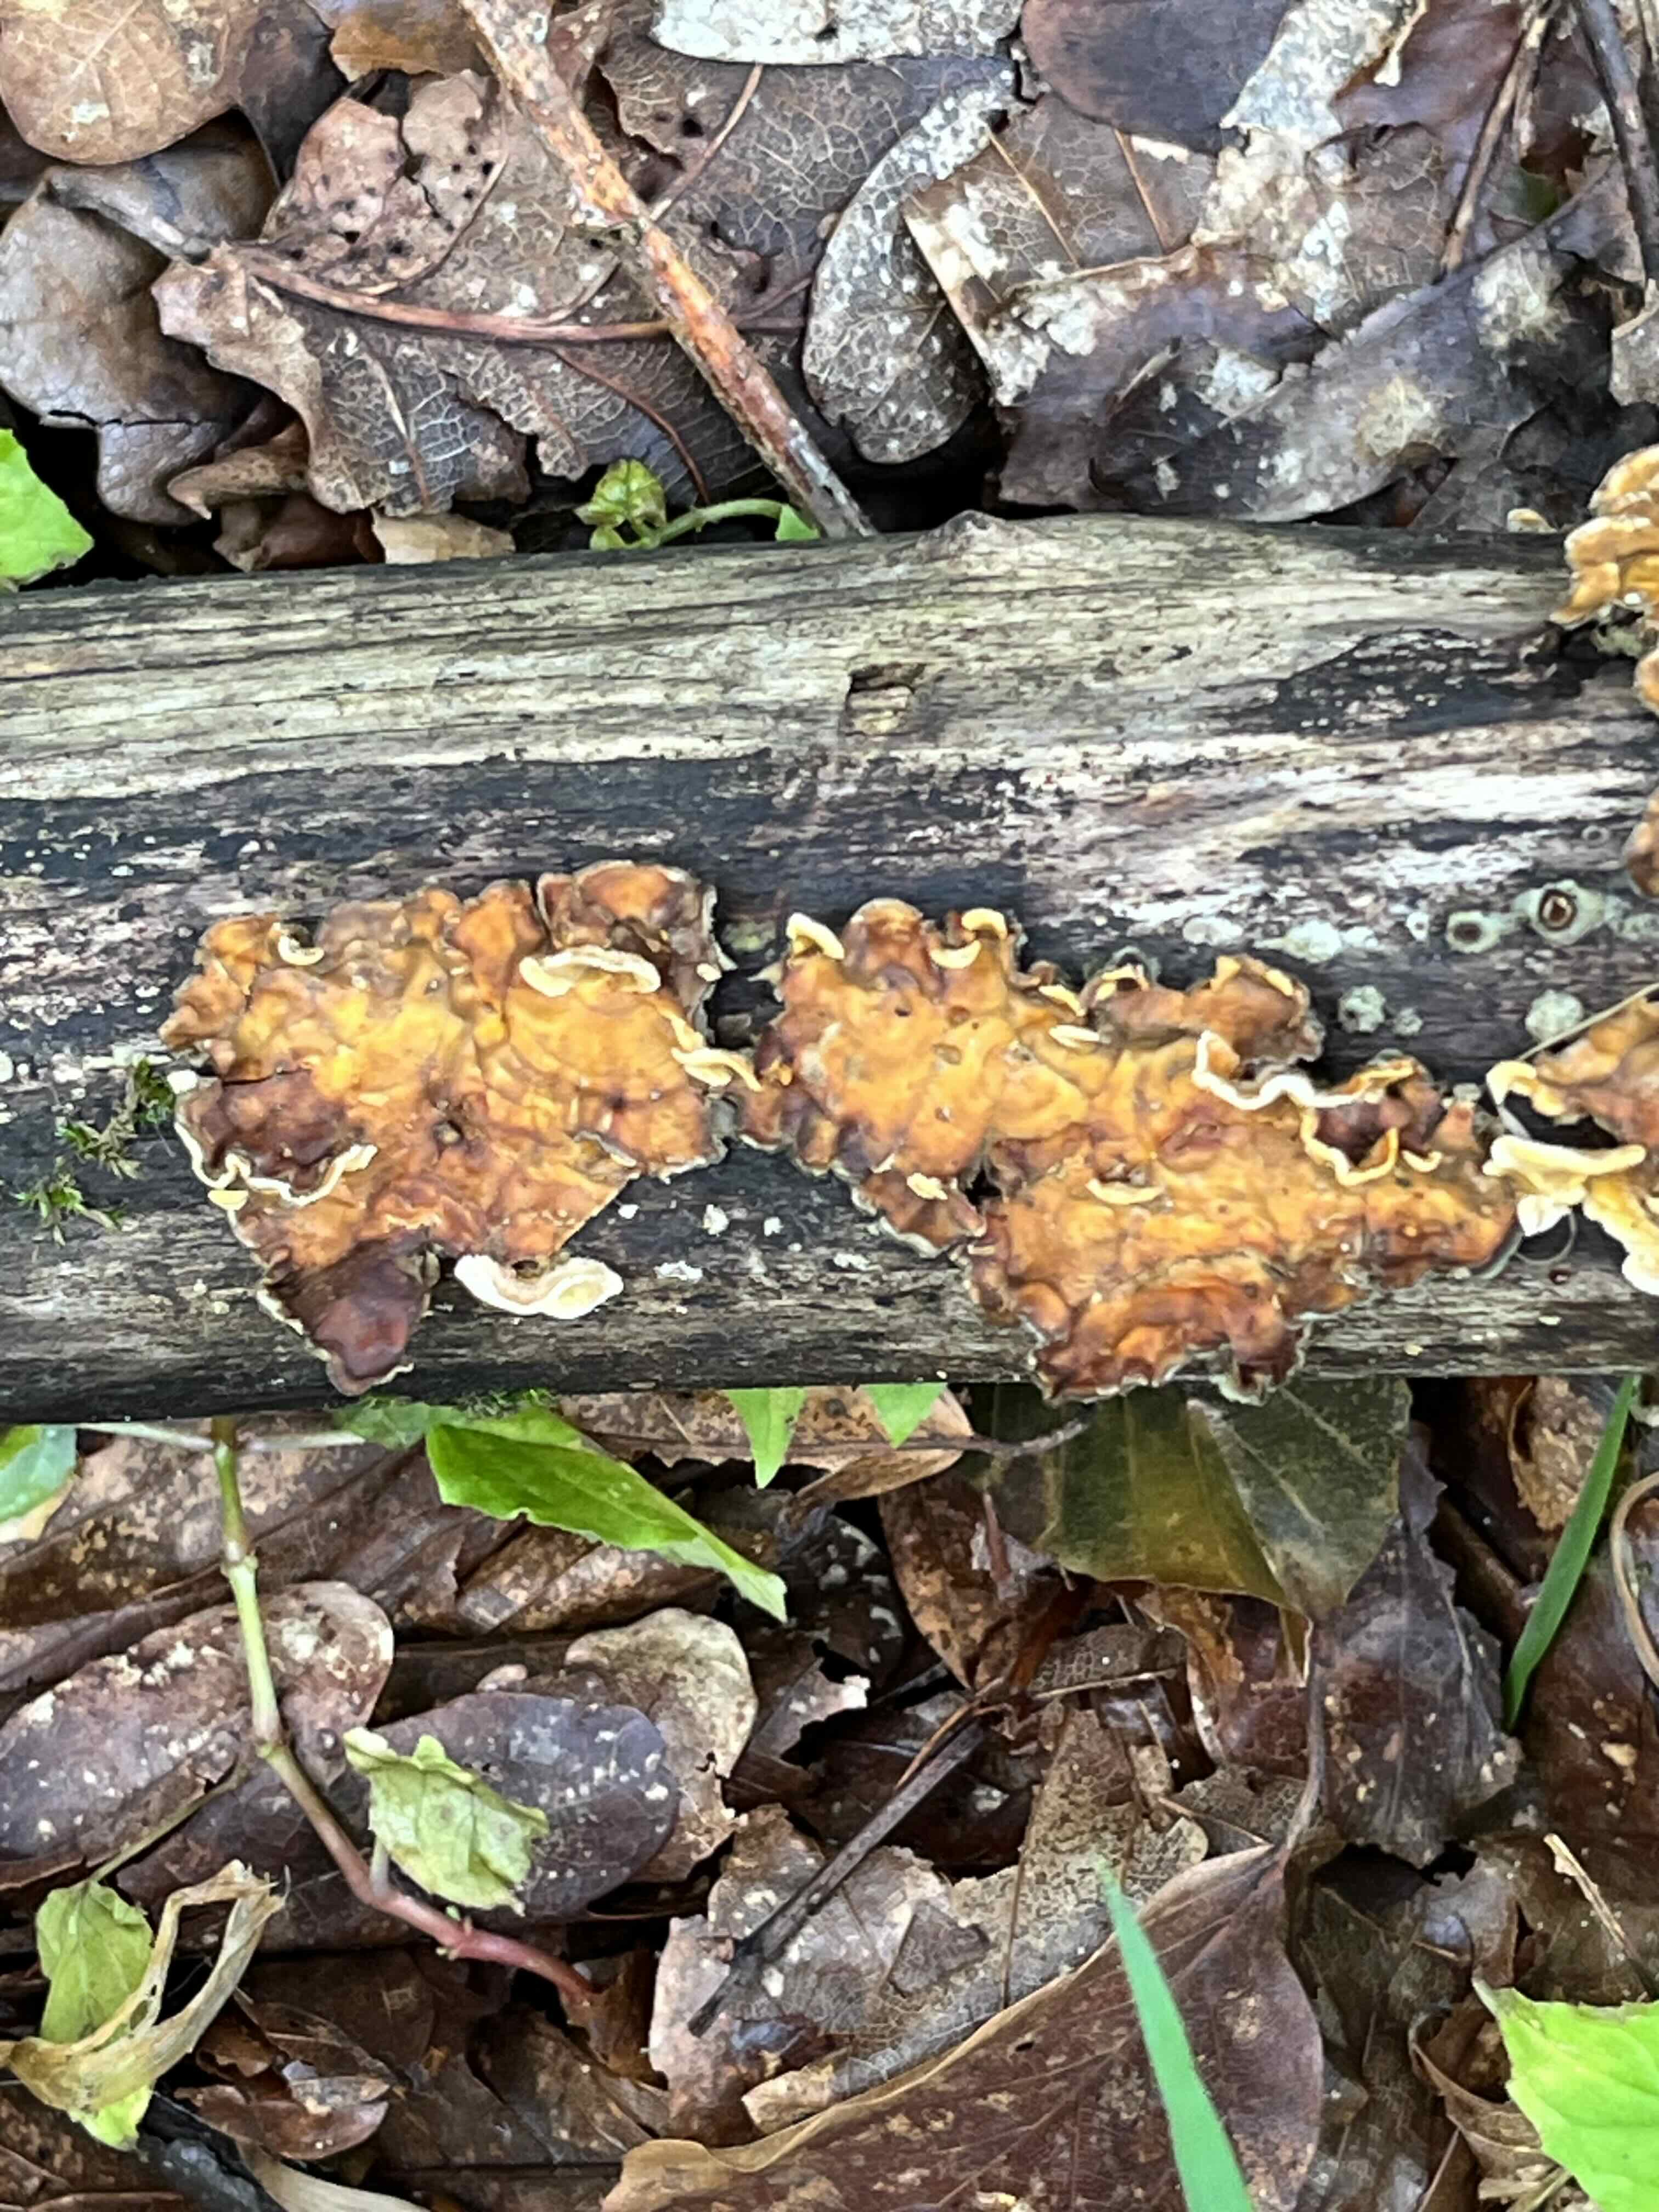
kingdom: Fungi
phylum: Basidiomycota
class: Agaricomycetes
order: Russulales
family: Stereaceae
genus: Stereum
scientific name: Stereum hirsutum
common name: håret lædersvamp
